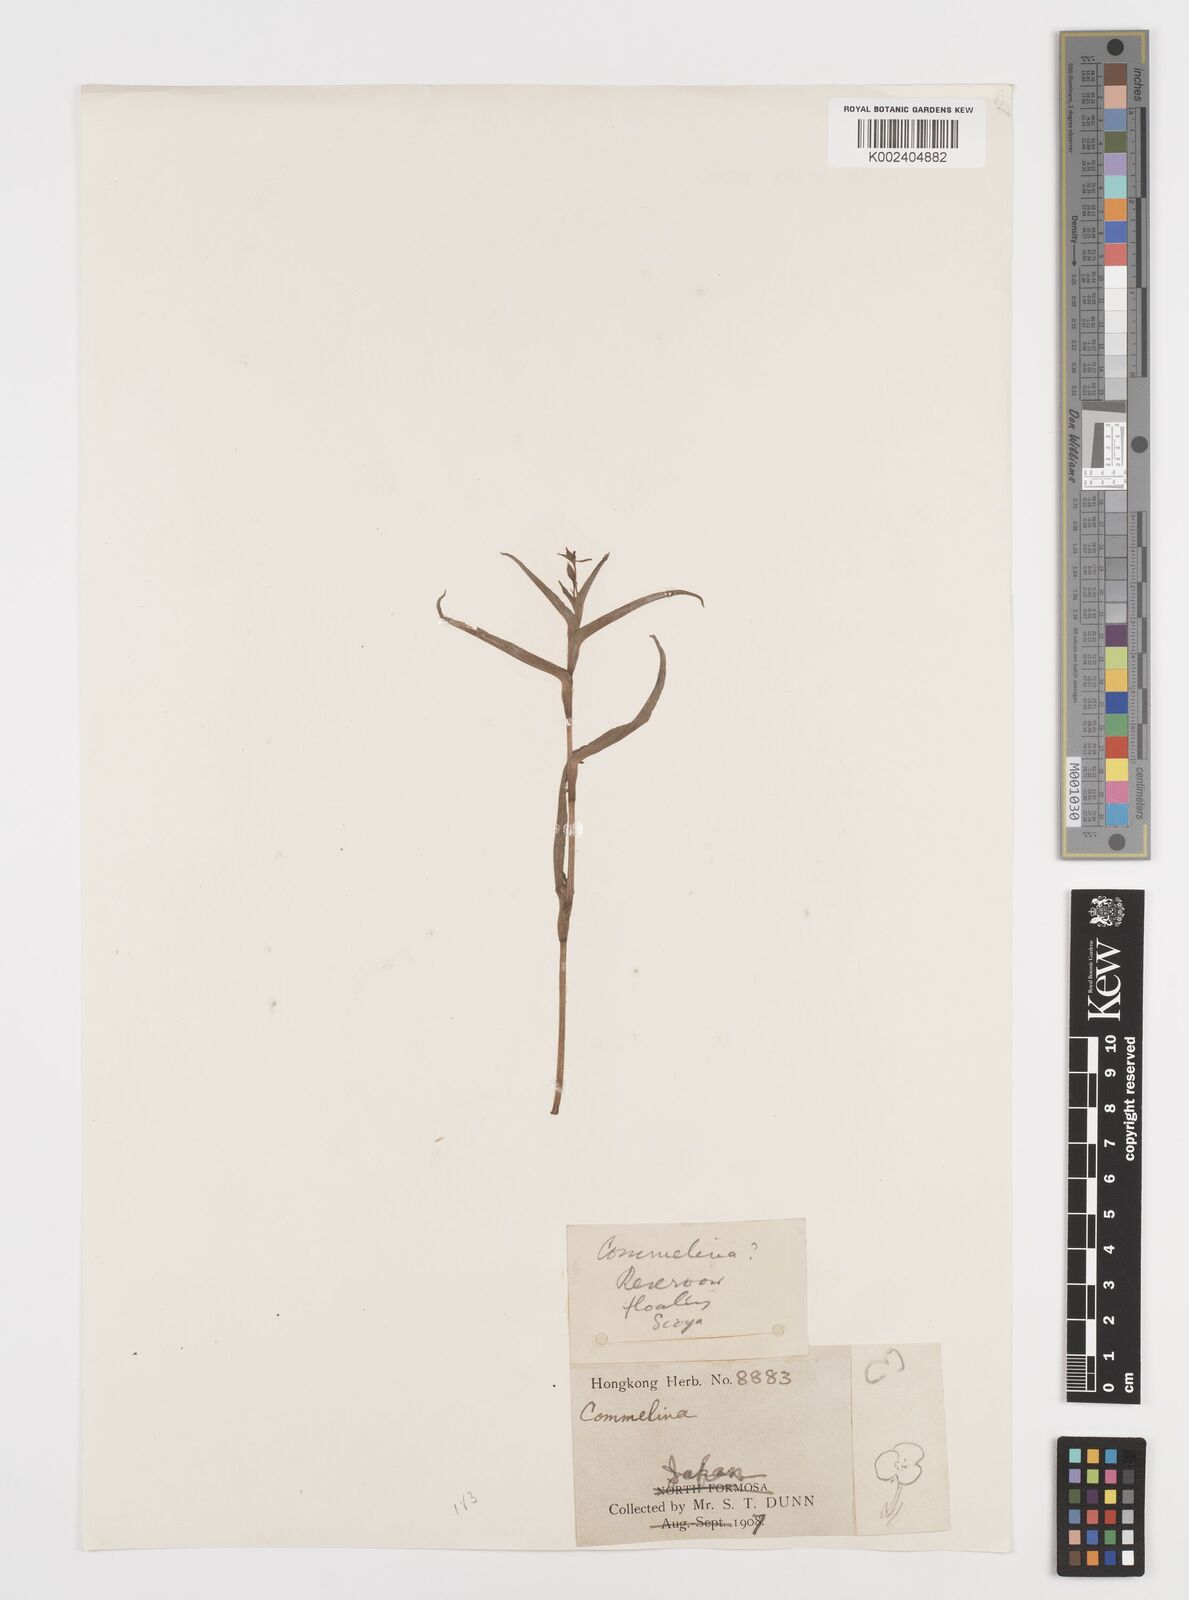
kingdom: Plantae
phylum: Tracheophyta
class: Liliopsida
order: Commelinales
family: Commelinaceae
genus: Commelina
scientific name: Commelina
